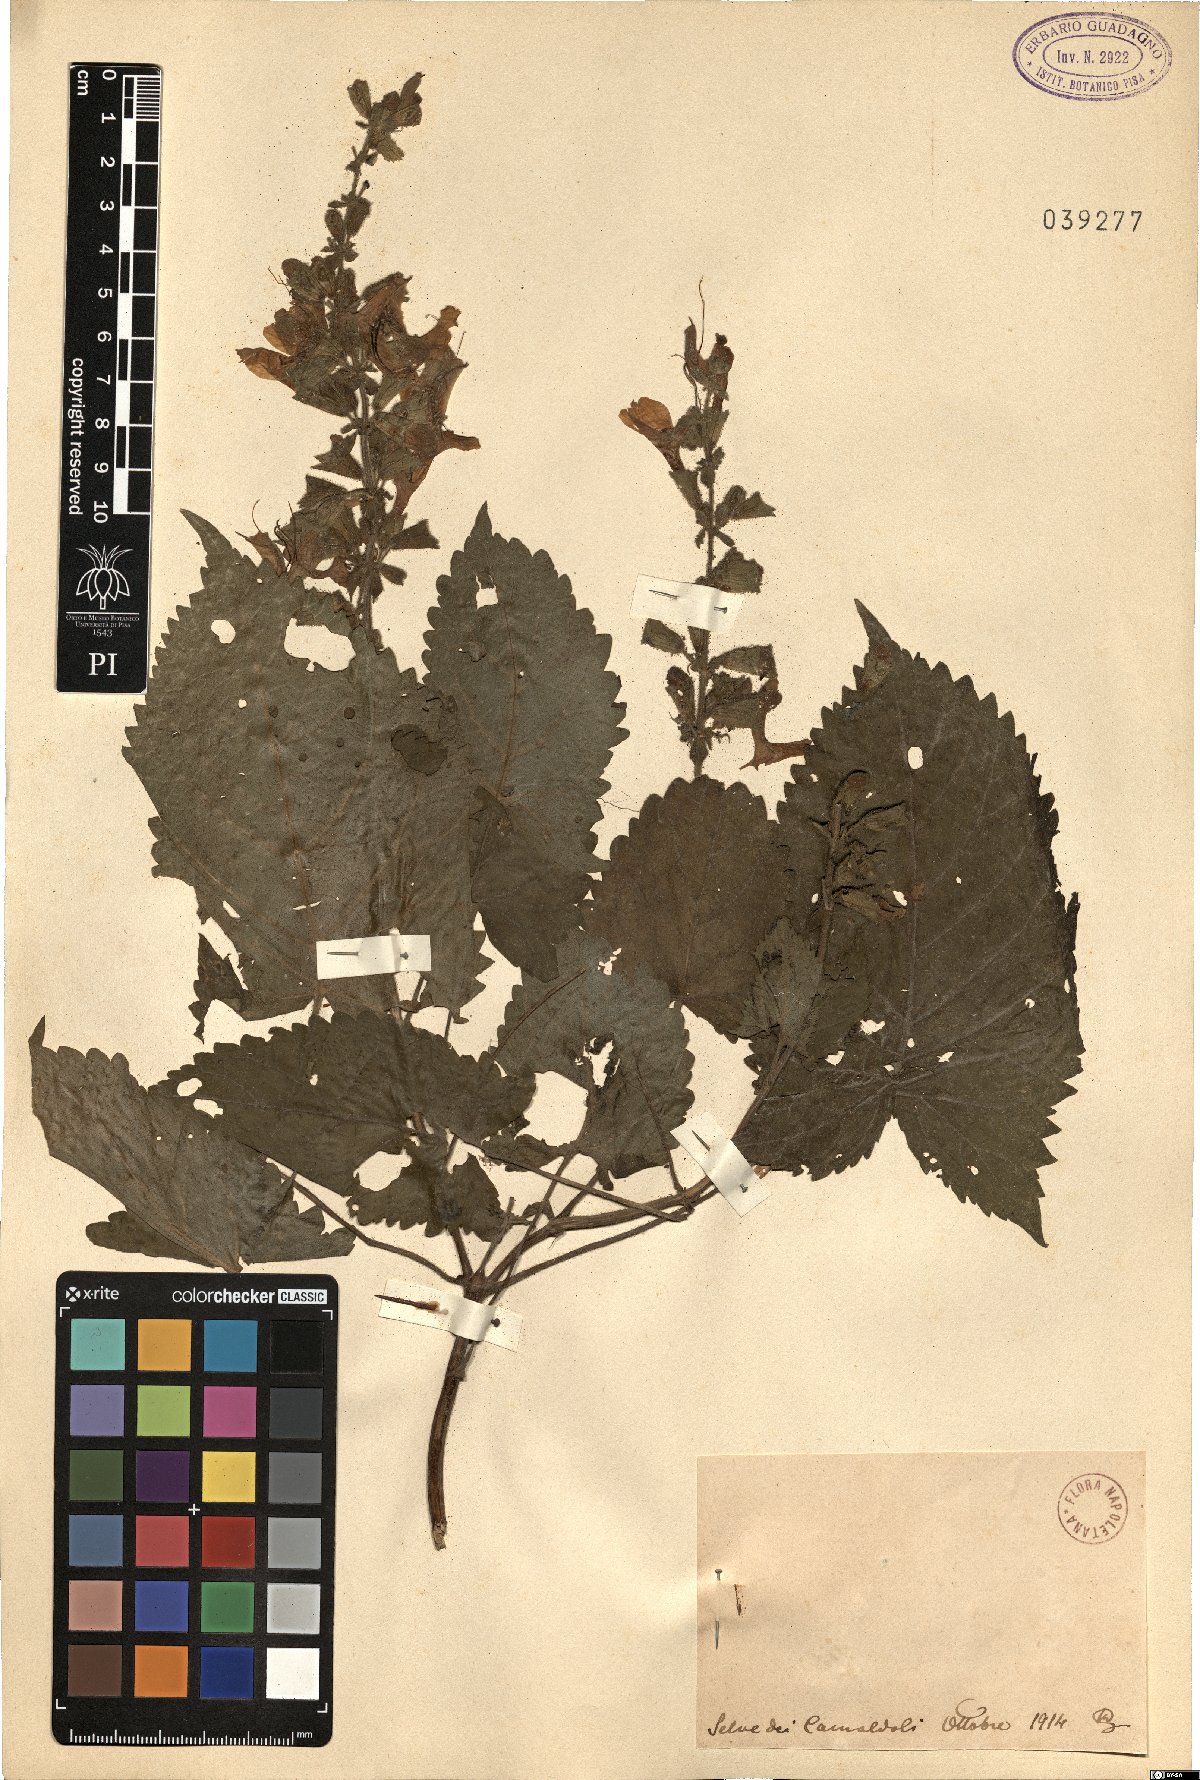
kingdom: Plantae
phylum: Tracheophyta
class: Magnoliopsida
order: Lamiales
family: Lamiaceae
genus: Salvia
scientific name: Salvia
